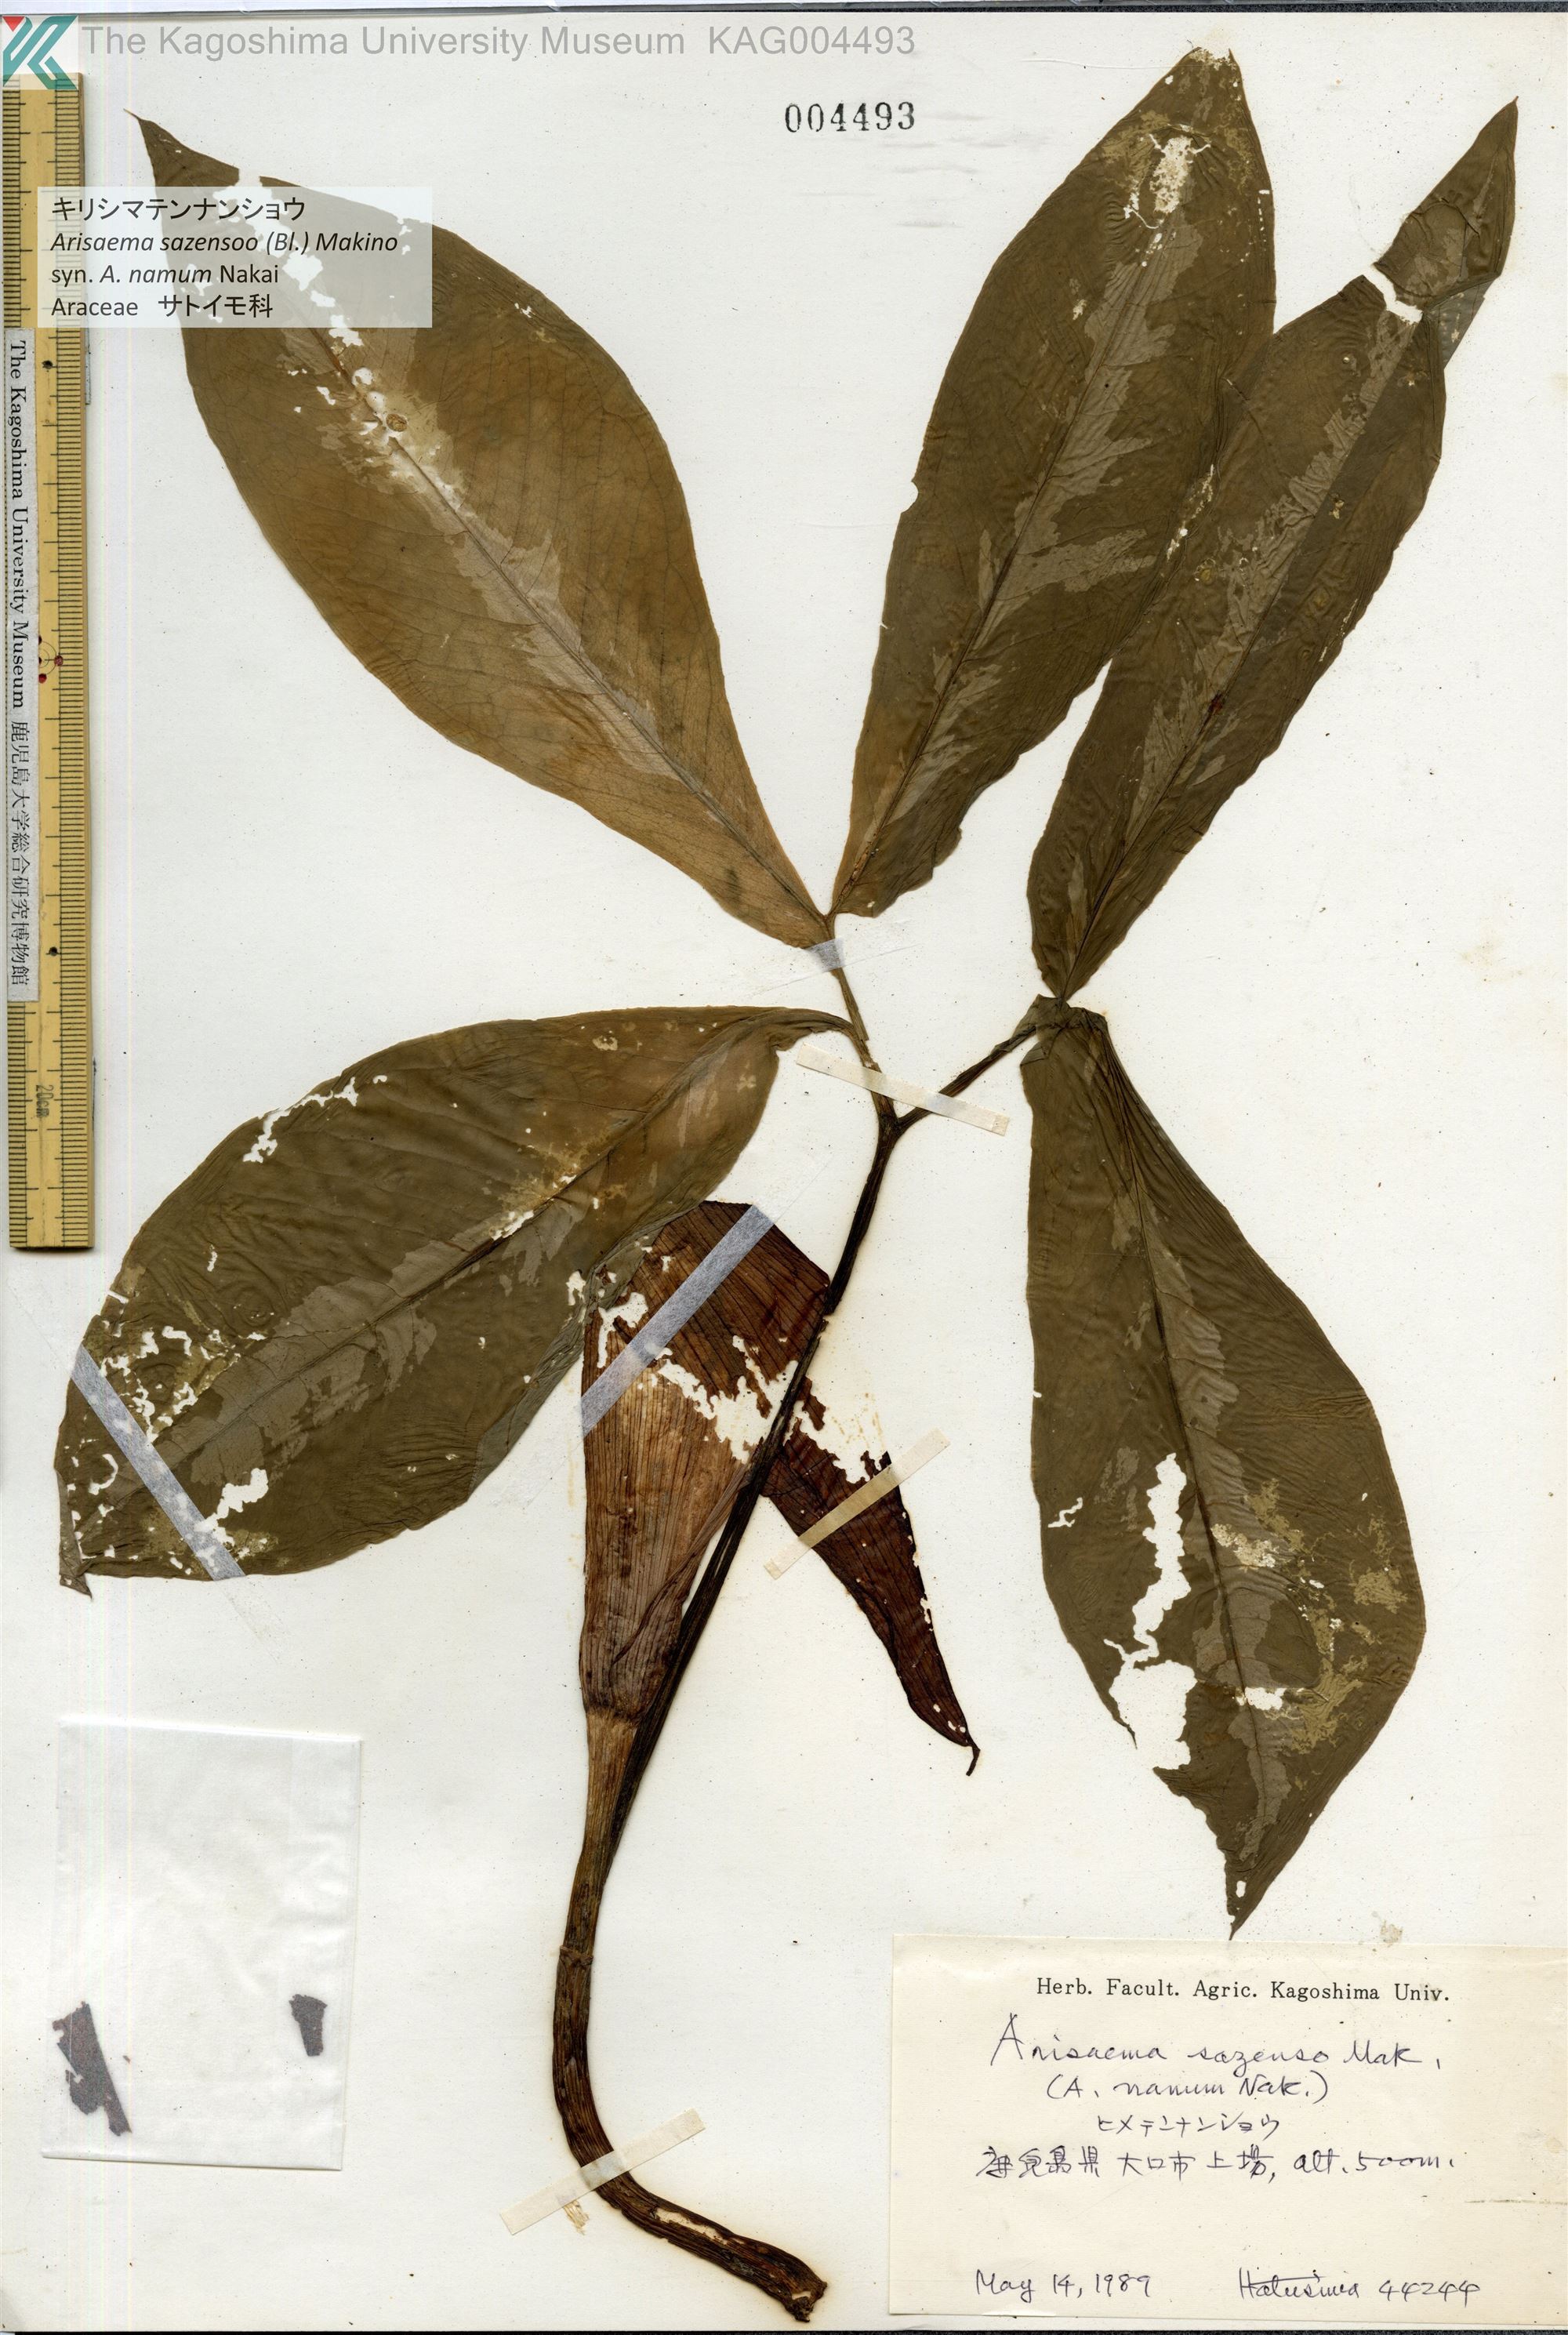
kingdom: Plantae
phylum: Tracheophyta
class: Liliopsida
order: Alismatales
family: Araceae
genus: Arisaema
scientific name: Arisaema sazensoo
